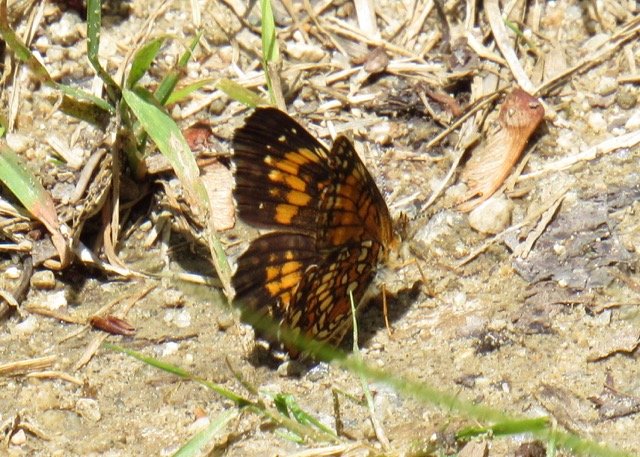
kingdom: Animalia
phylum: Arthropoda
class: Insecta
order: Lepidoptera
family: Nymphalidae
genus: Chlosyne
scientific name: Chlosyne harrisii
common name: Harris's Checkerspot
